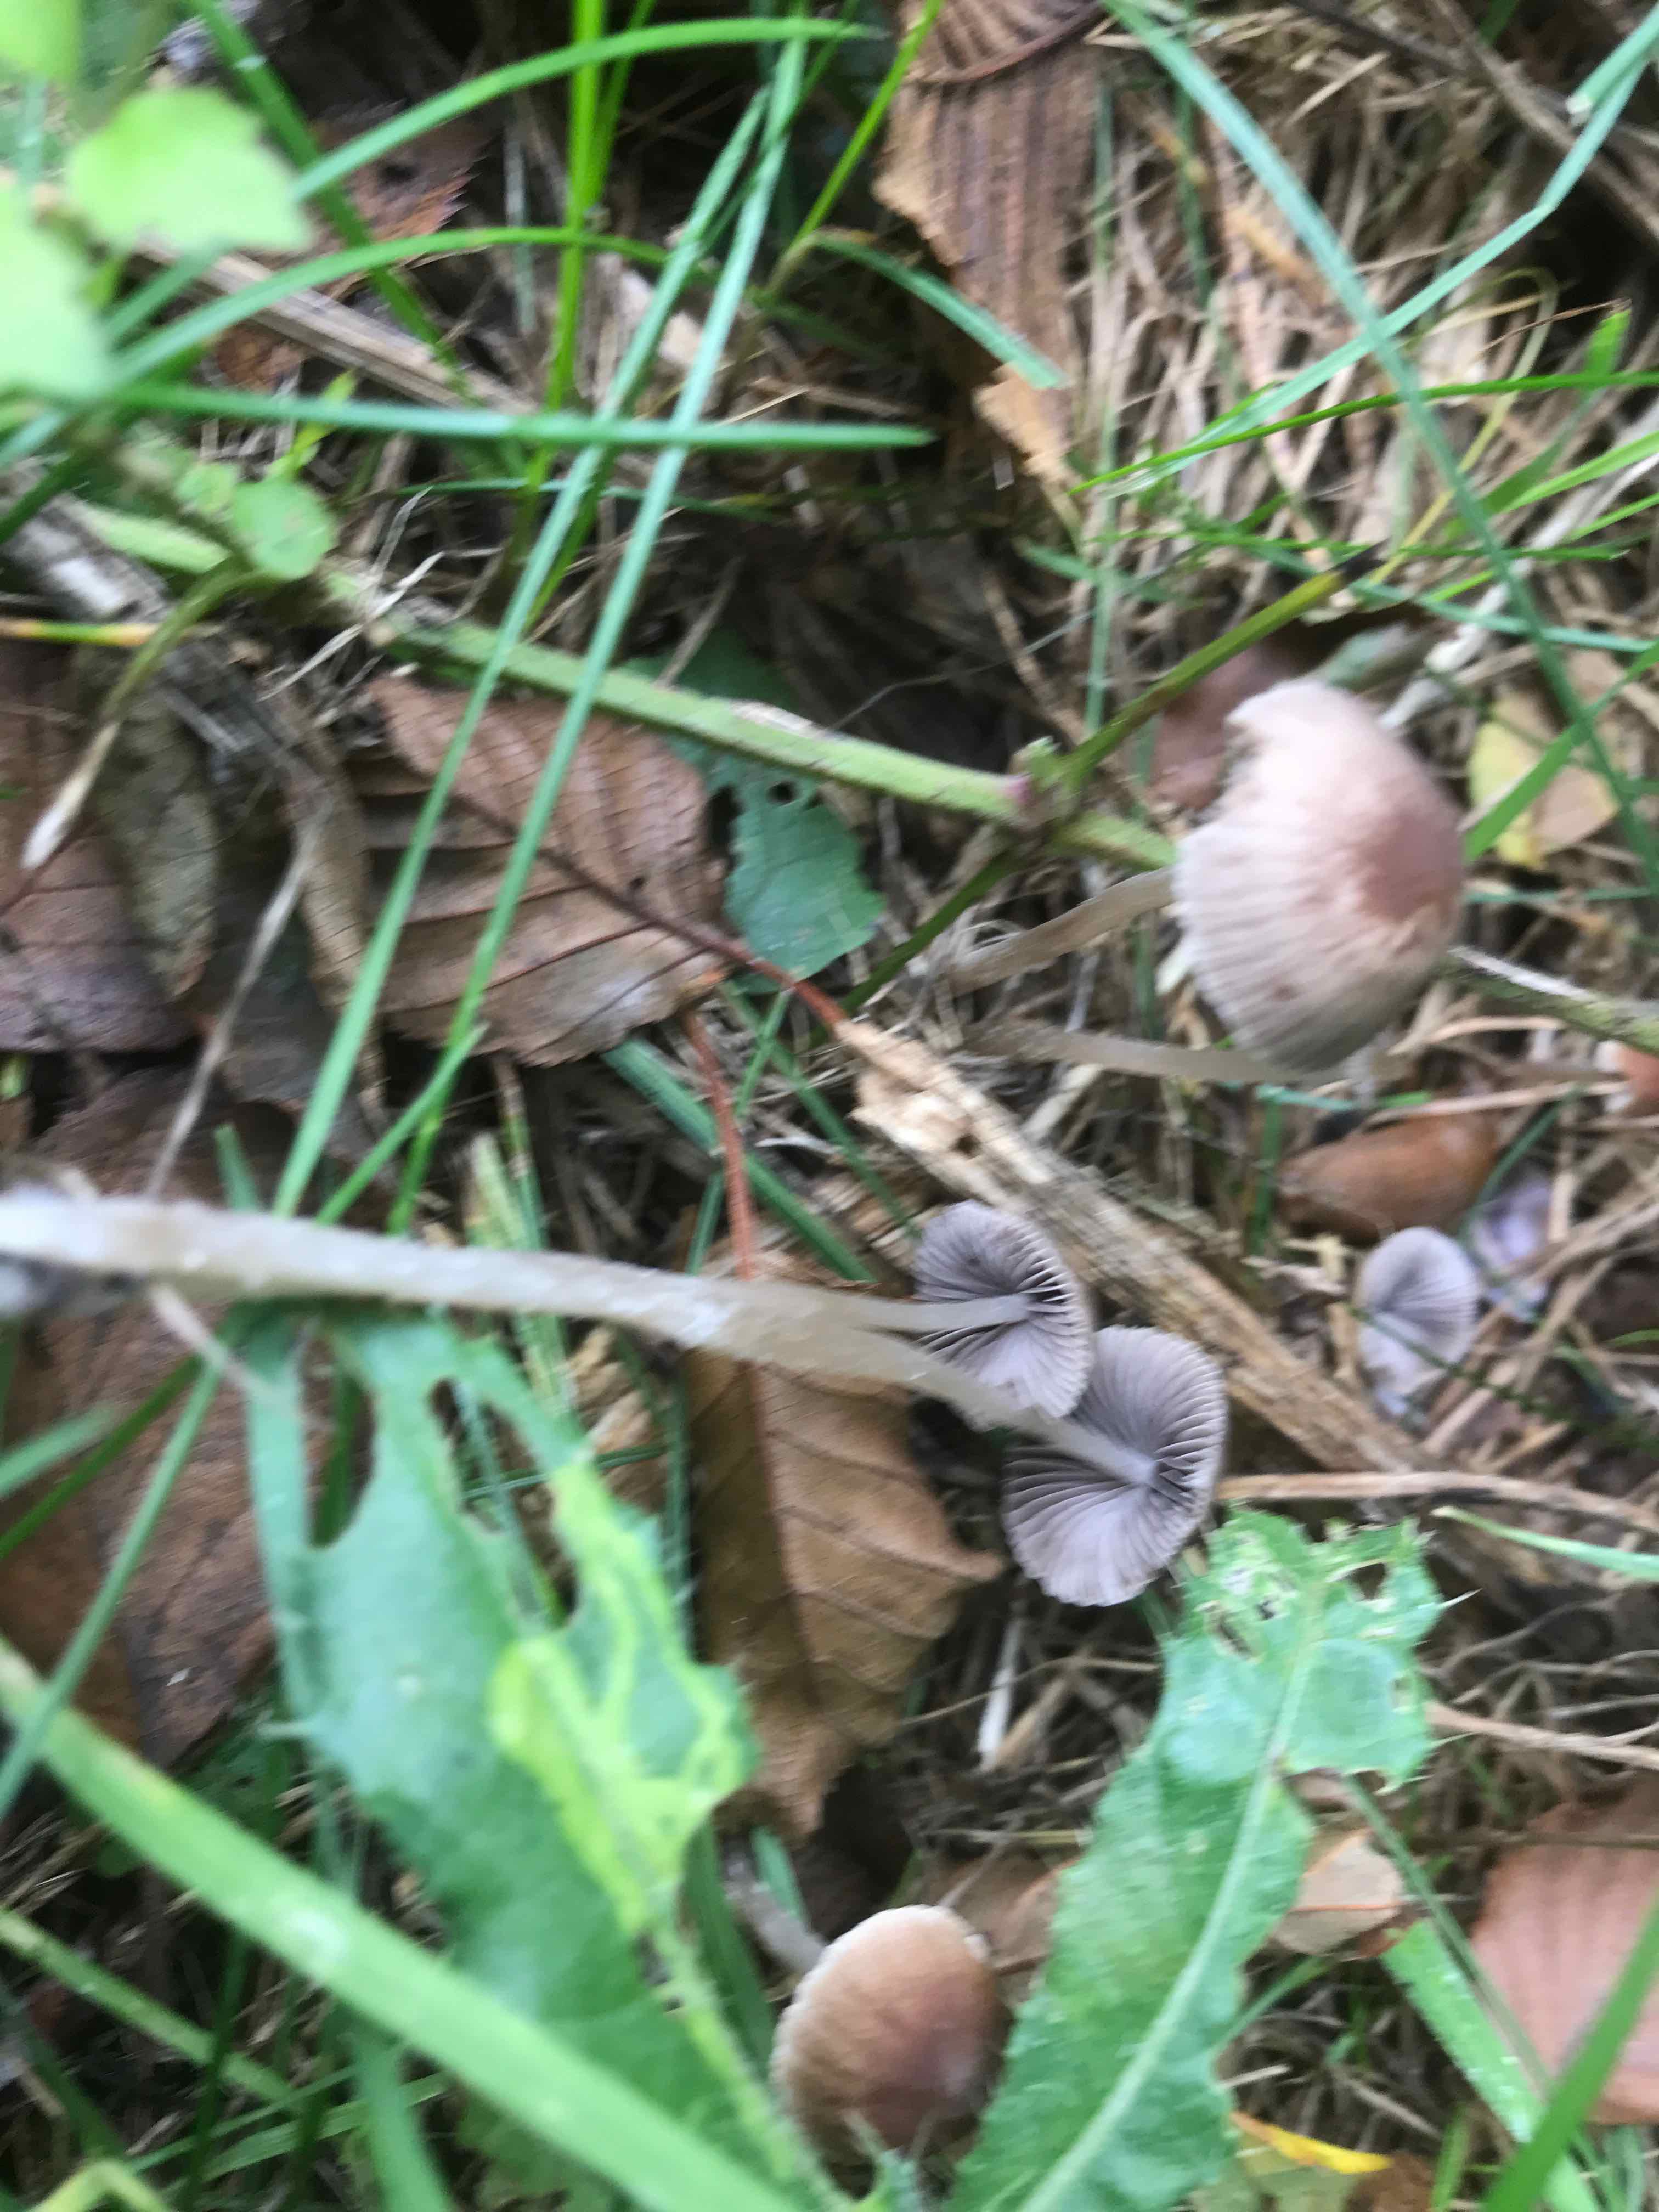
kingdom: Fungi
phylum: Basidiomycota
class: Agaricomycetes
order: Agaricales
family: Psathyrellaceae
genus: Psathyrella
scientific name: Psathyrella
